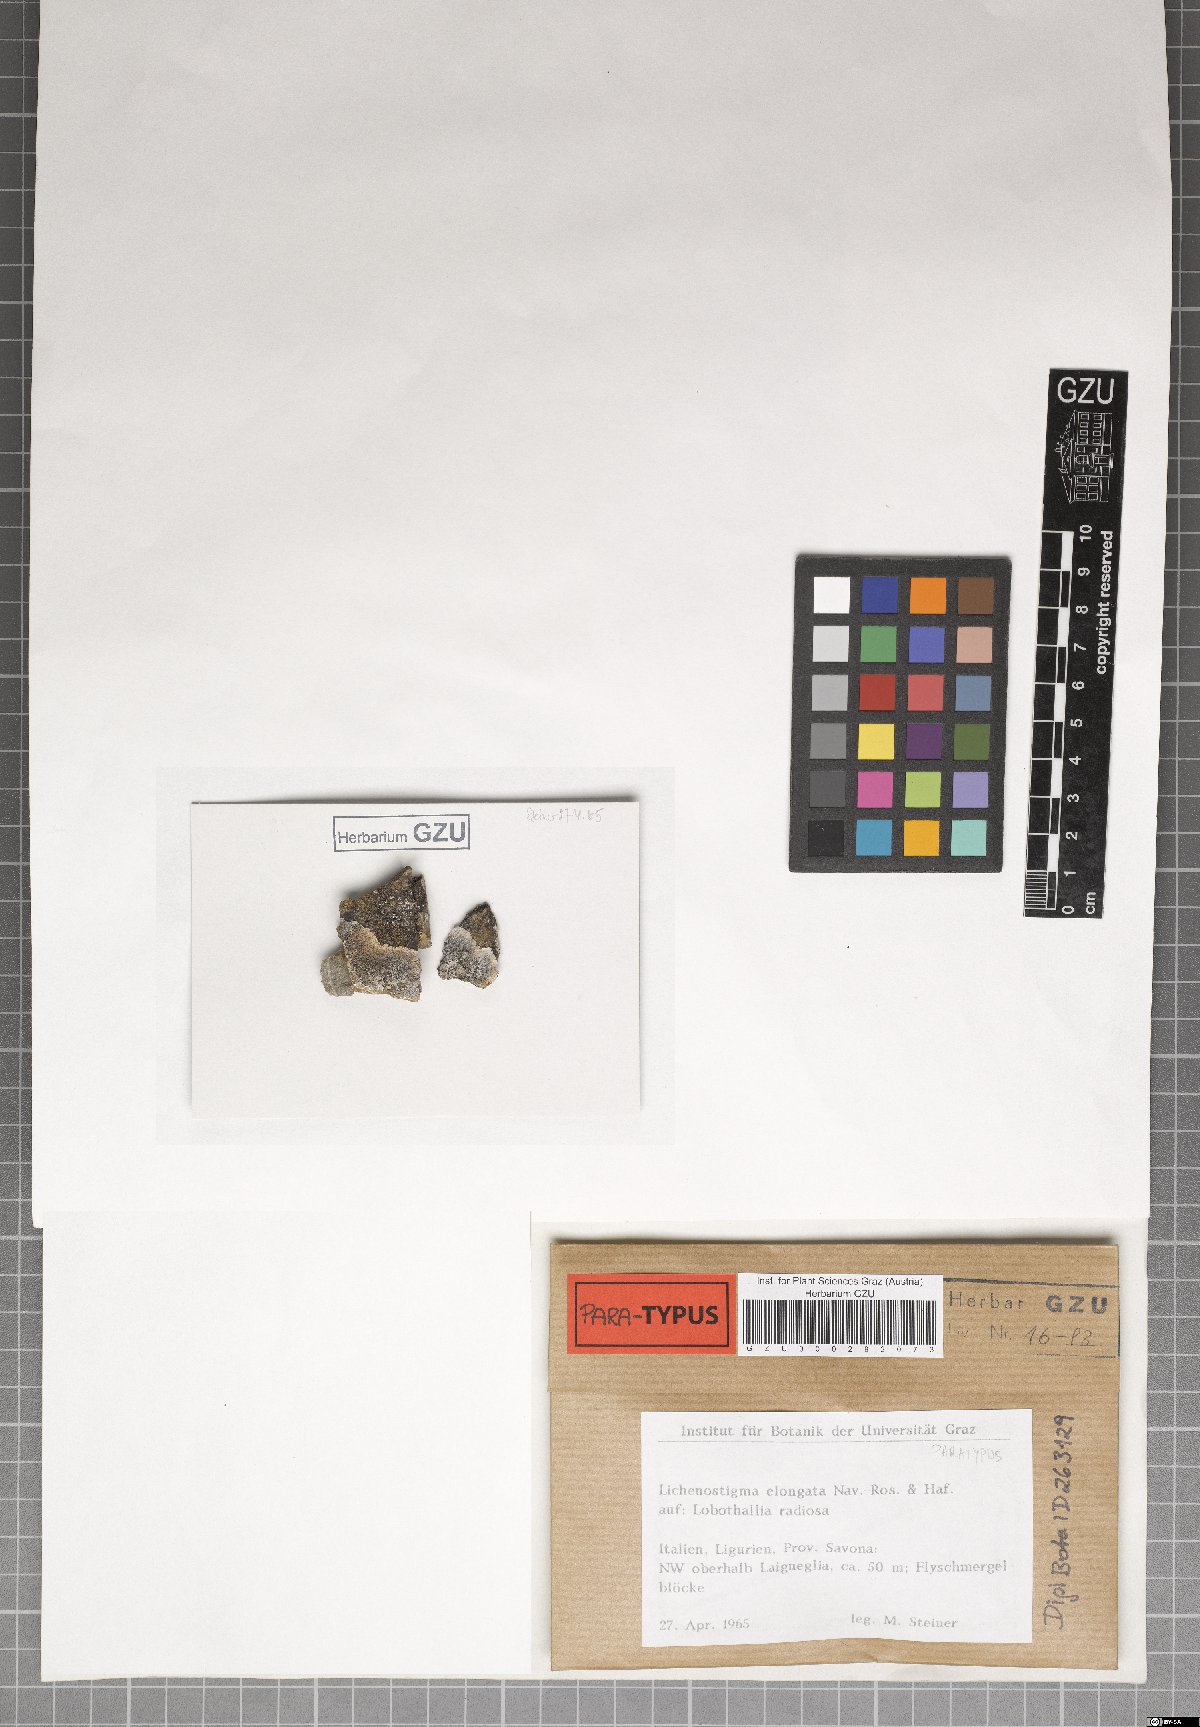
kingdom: Fungi
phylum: Ascomycota
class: Arthoniomycetes
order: Lichenostigmatales
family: Phaeococcomycetaceae
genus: Lichenostigma
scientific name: Lichenostigma elongatum
